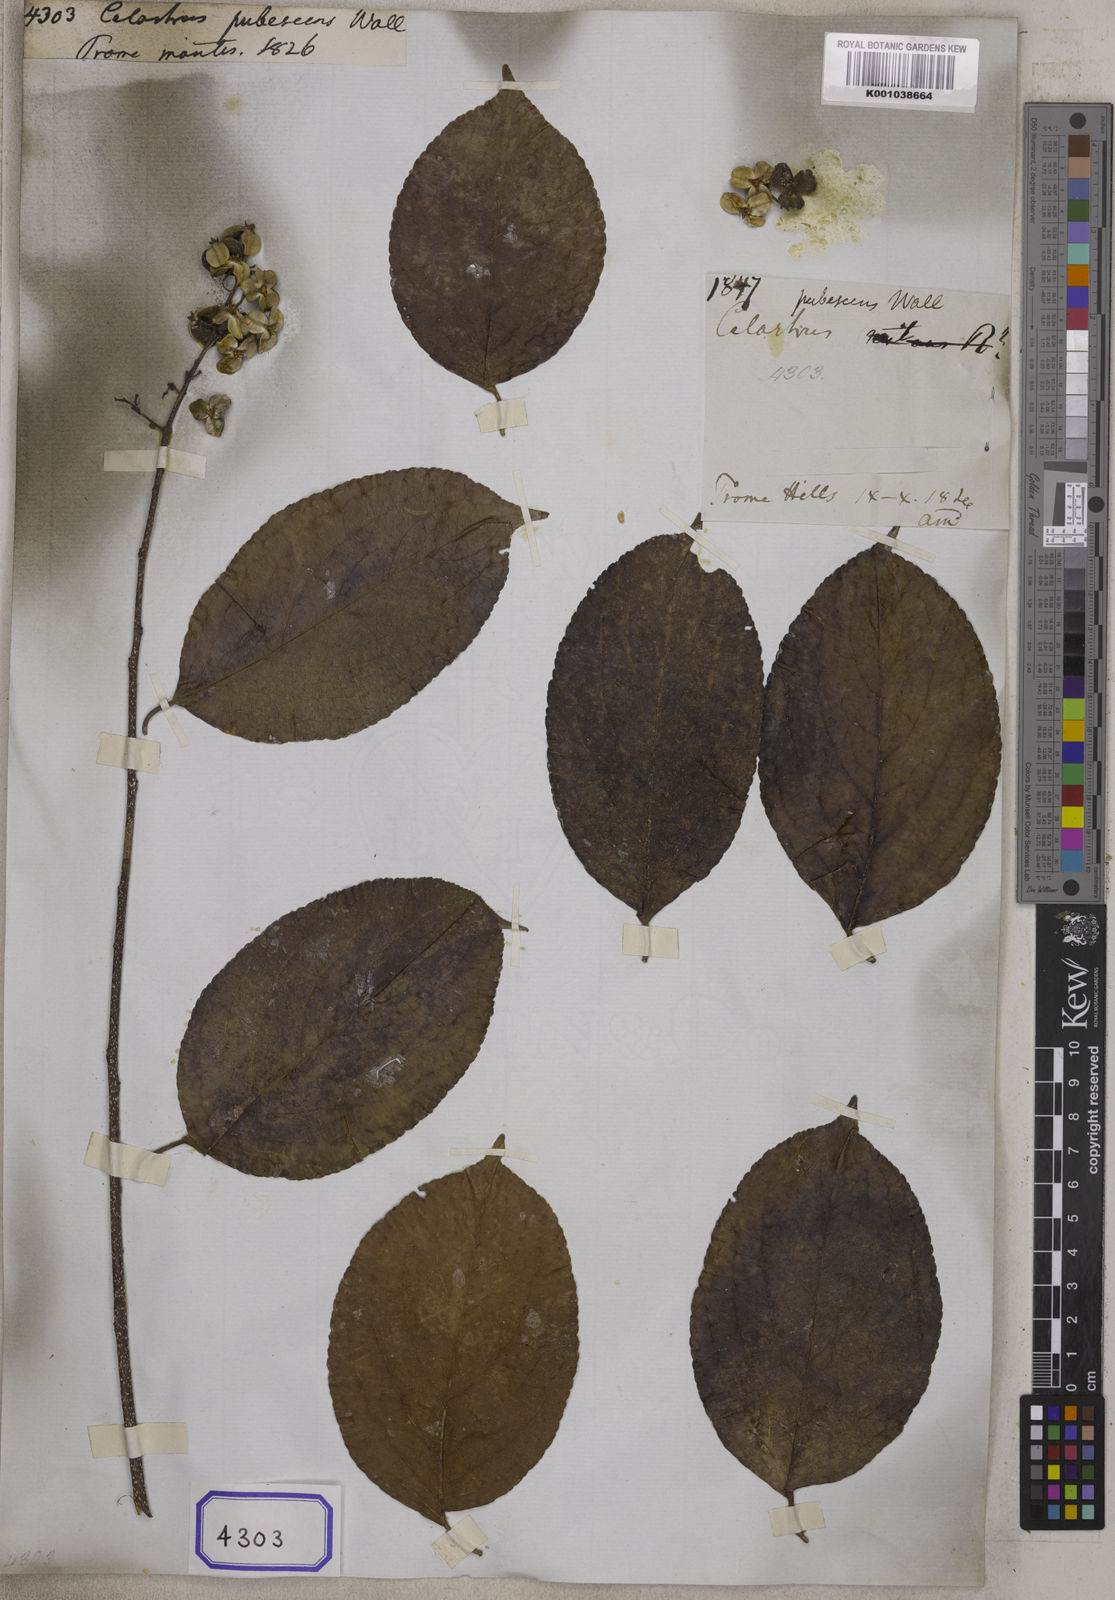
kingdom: Plantae
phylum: Tracheophyta
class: Magnoliopsida
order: Celastrales
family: Celastraceae
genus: Celastrus
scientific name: Celastrus paniculatus
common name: Oriental bittersweet; staff vine
